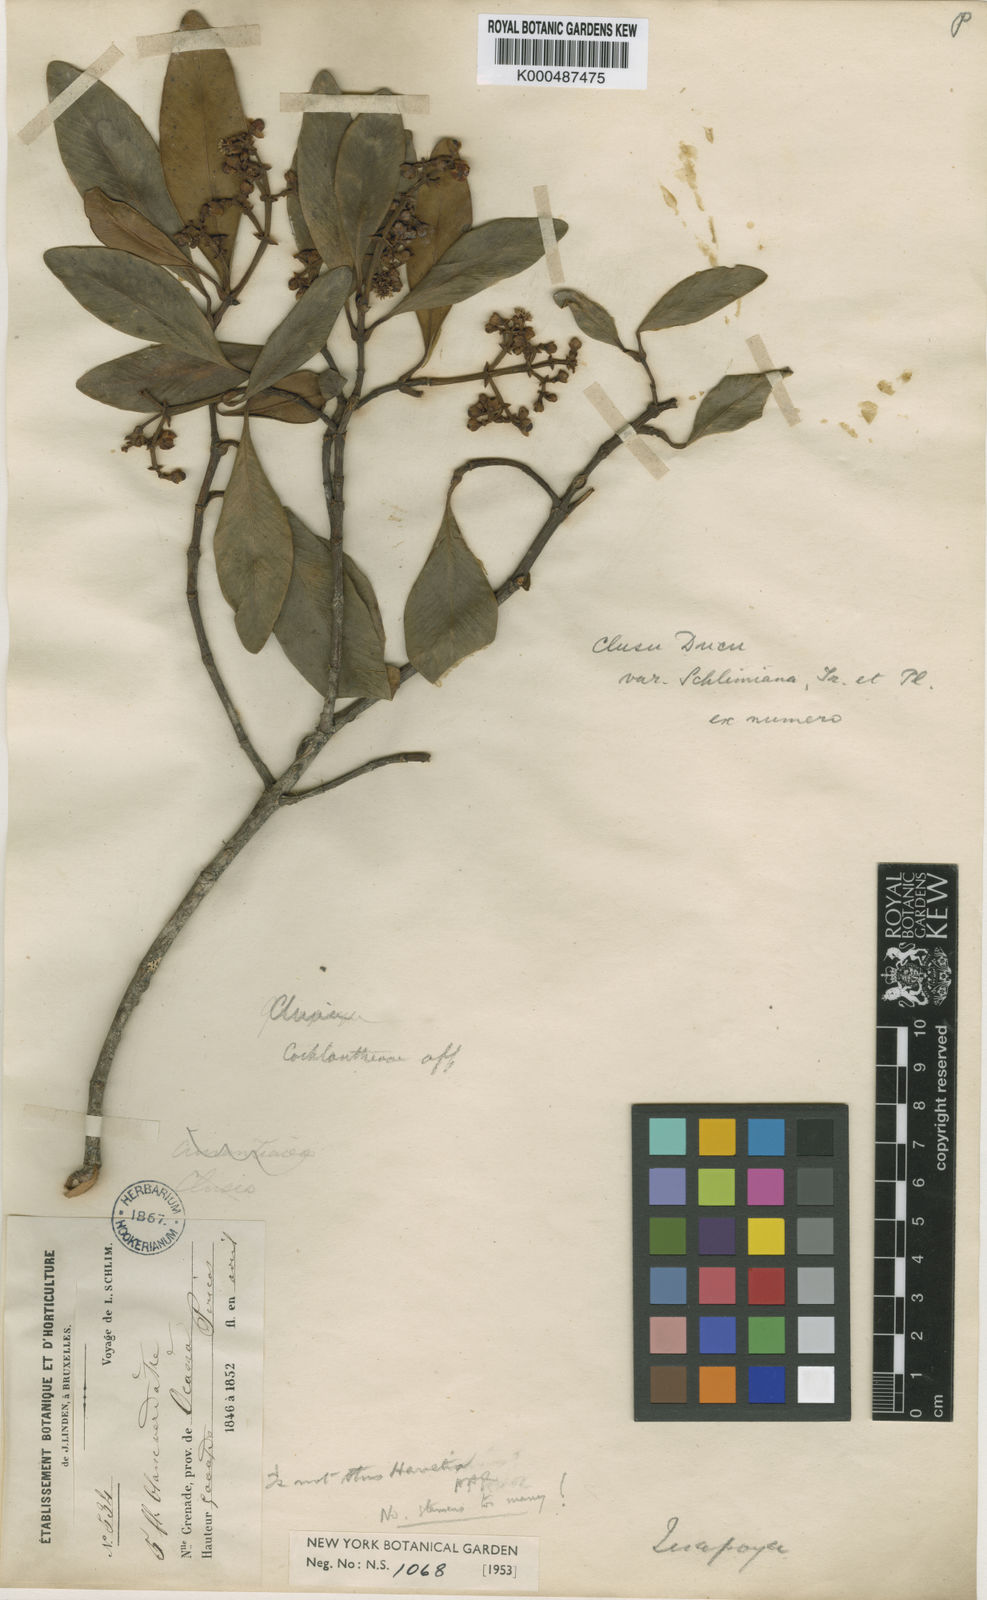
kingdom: Plantae
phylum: Tracheophyta
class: Magnoliopsida
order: Malpighiales
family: Clusiaceae
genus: Clusia
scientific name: Clusia ducu
